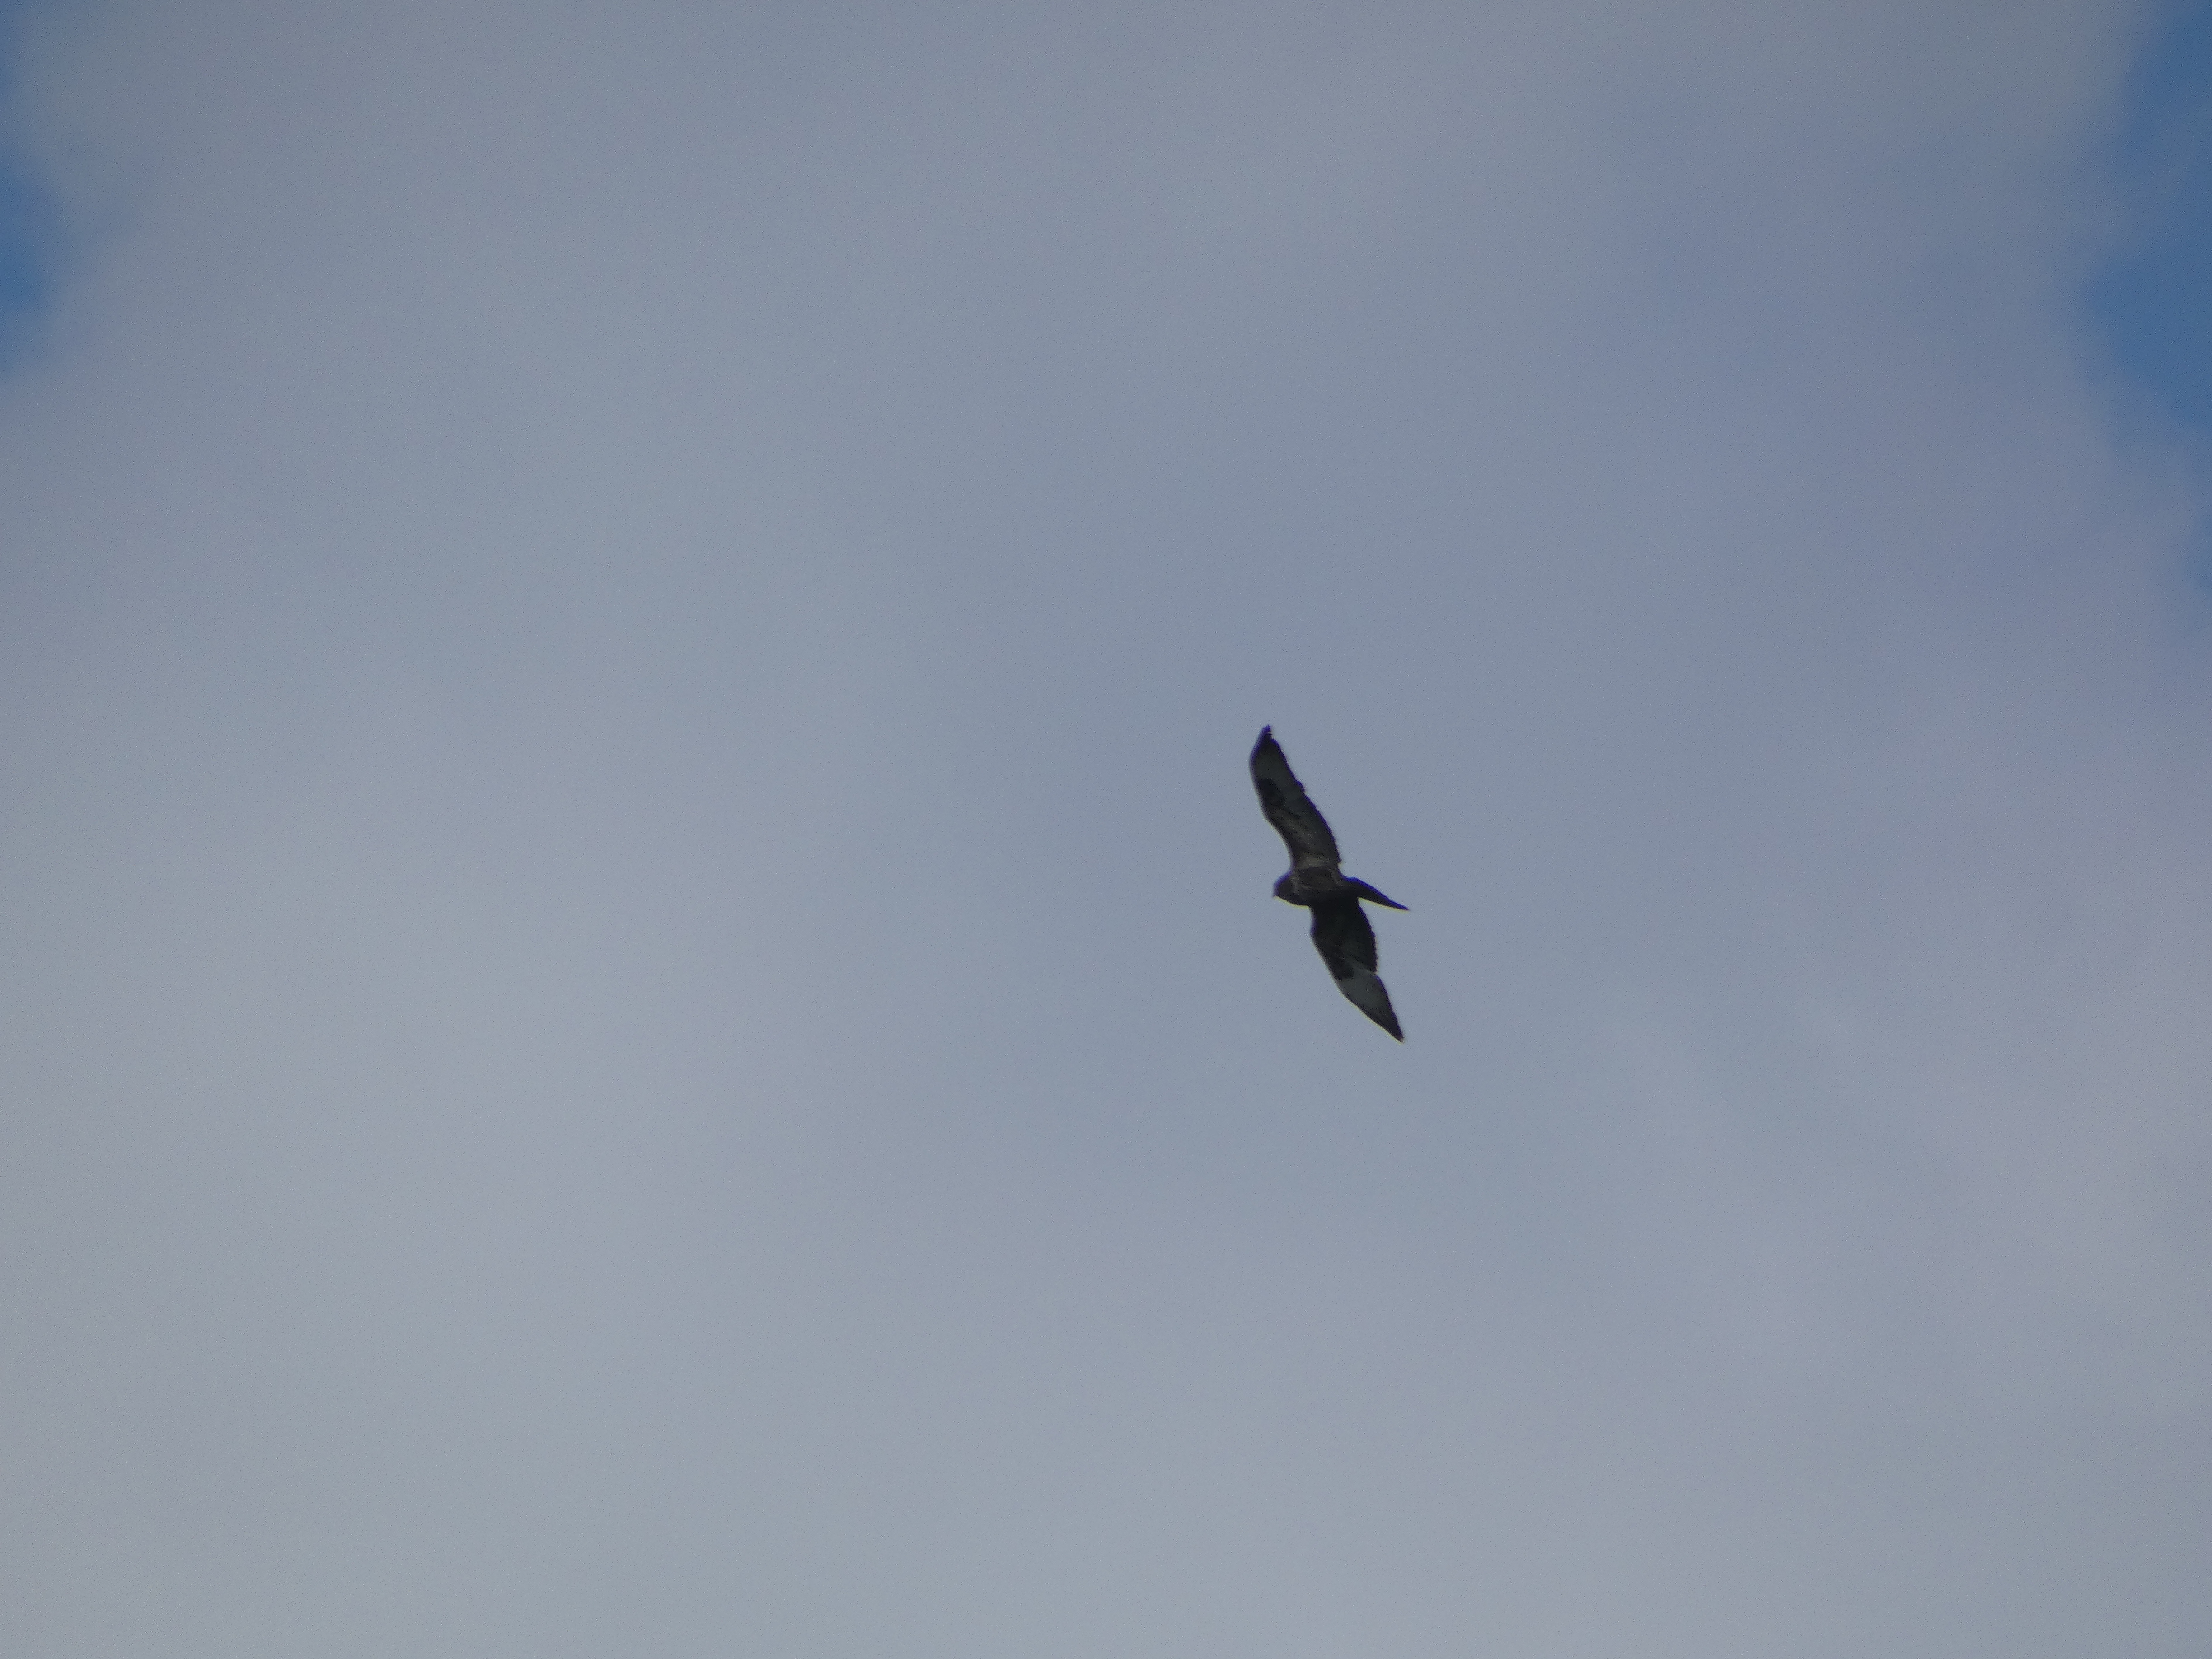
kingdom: Animalia
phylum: Chordata
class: Aves
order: Accipitriformes
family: Accipitridae
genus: Buteo
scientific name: Buteo buteo
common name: Musvåge
